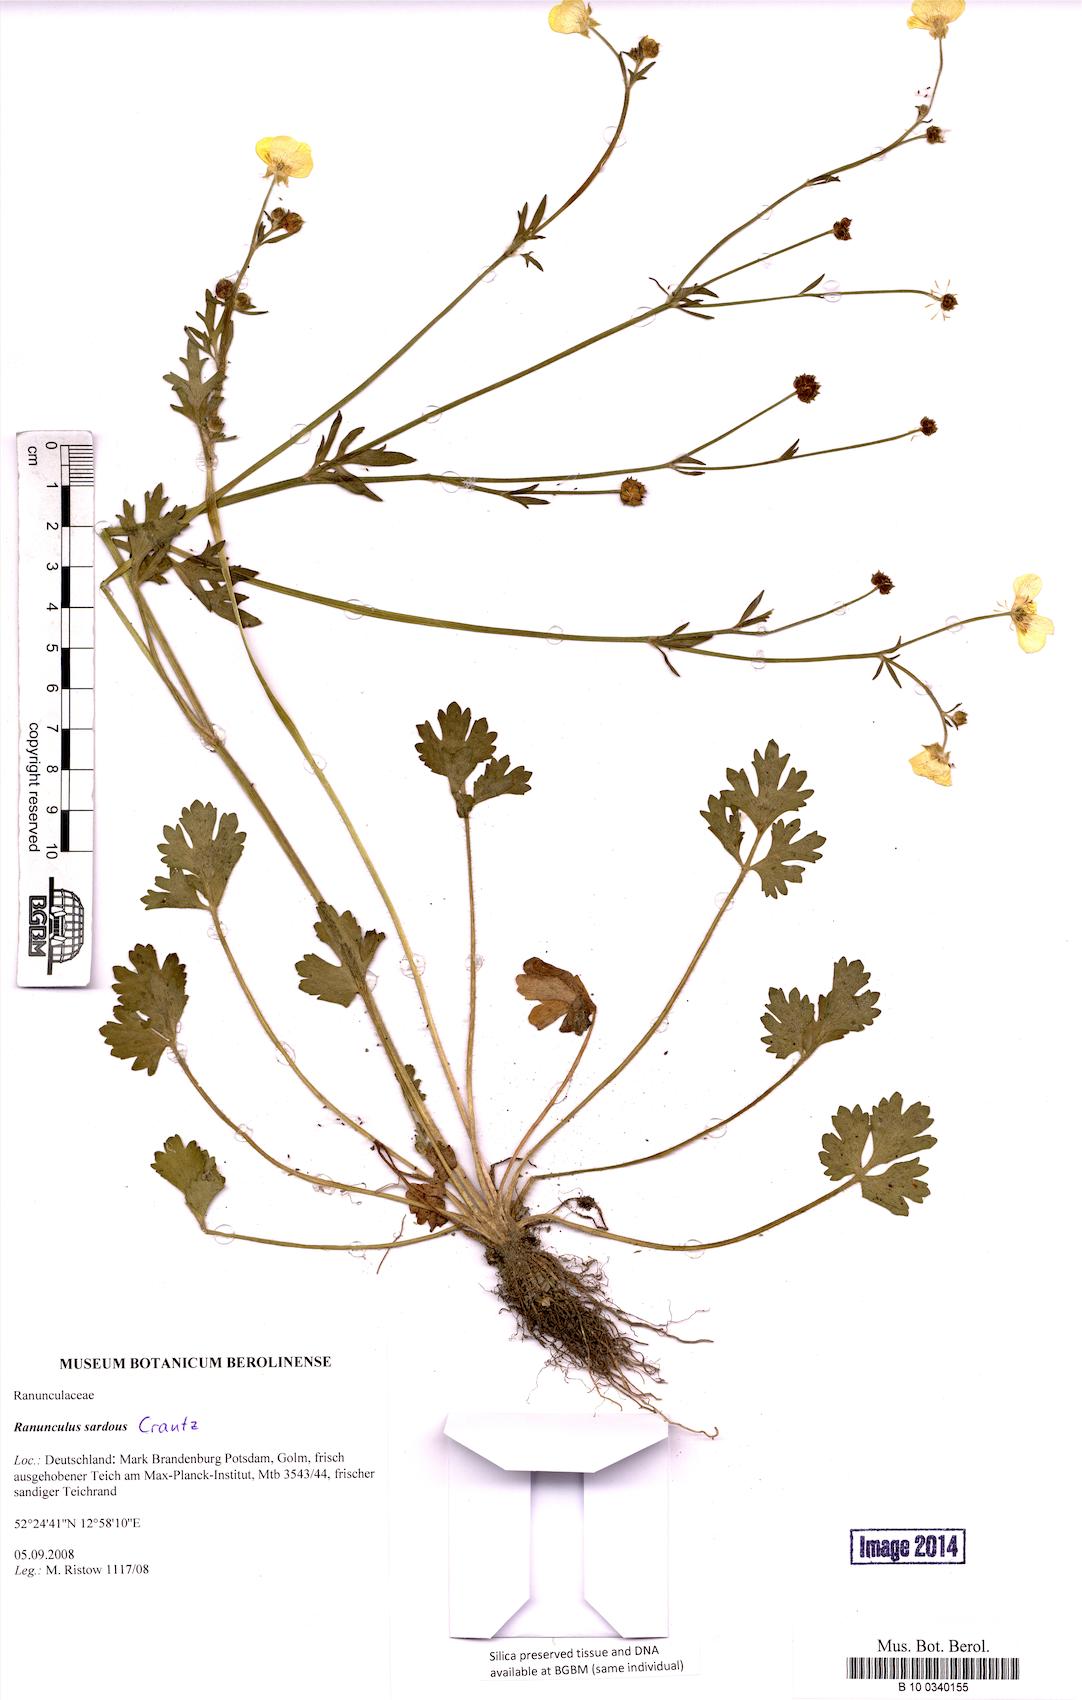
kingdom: Plantae
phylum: Tracheophyta
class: Magnoliopsida
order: Ranunculales
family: Ranunculaceae
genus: Ranunculus
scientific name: Ranunculus sardous
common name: Hairy buttercup
